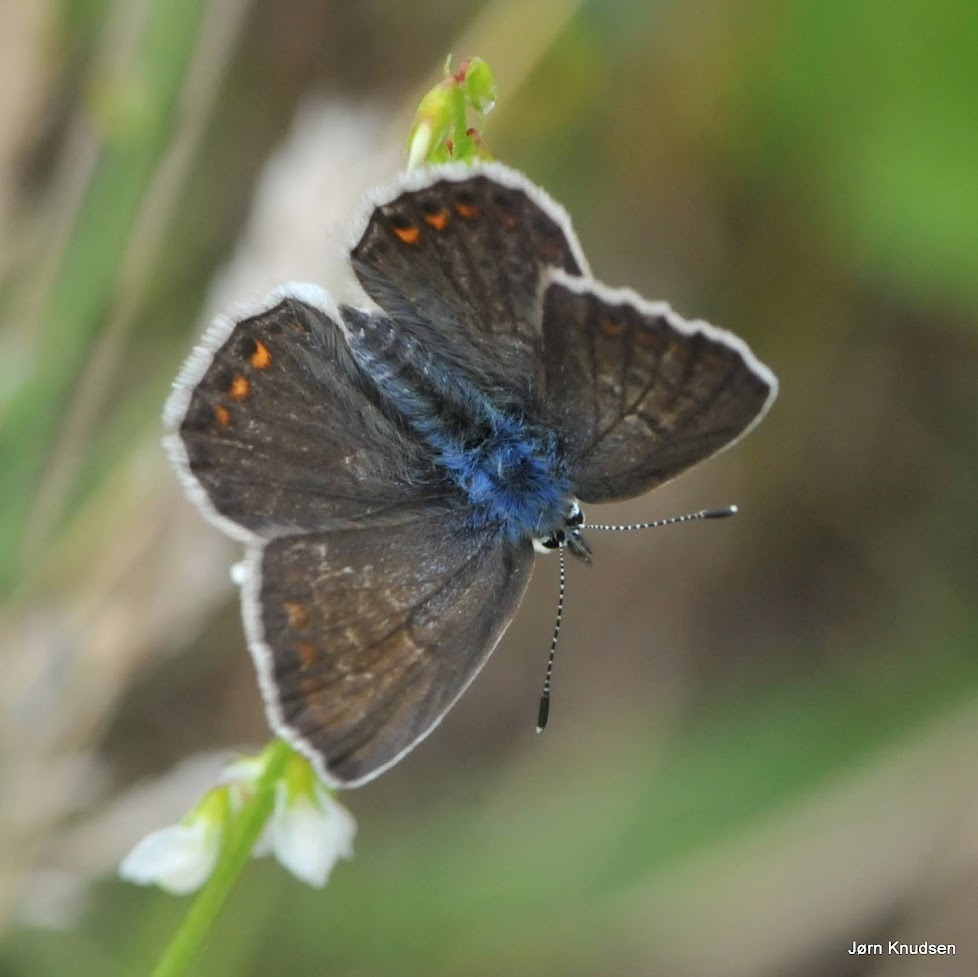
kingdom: Animalia
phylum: Arthropoda
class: Insecta
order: Lepidoptera
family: Lycaenidae
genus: Polyommatus
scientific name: Polyommatus icarus
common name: Almindelig blåfugl
